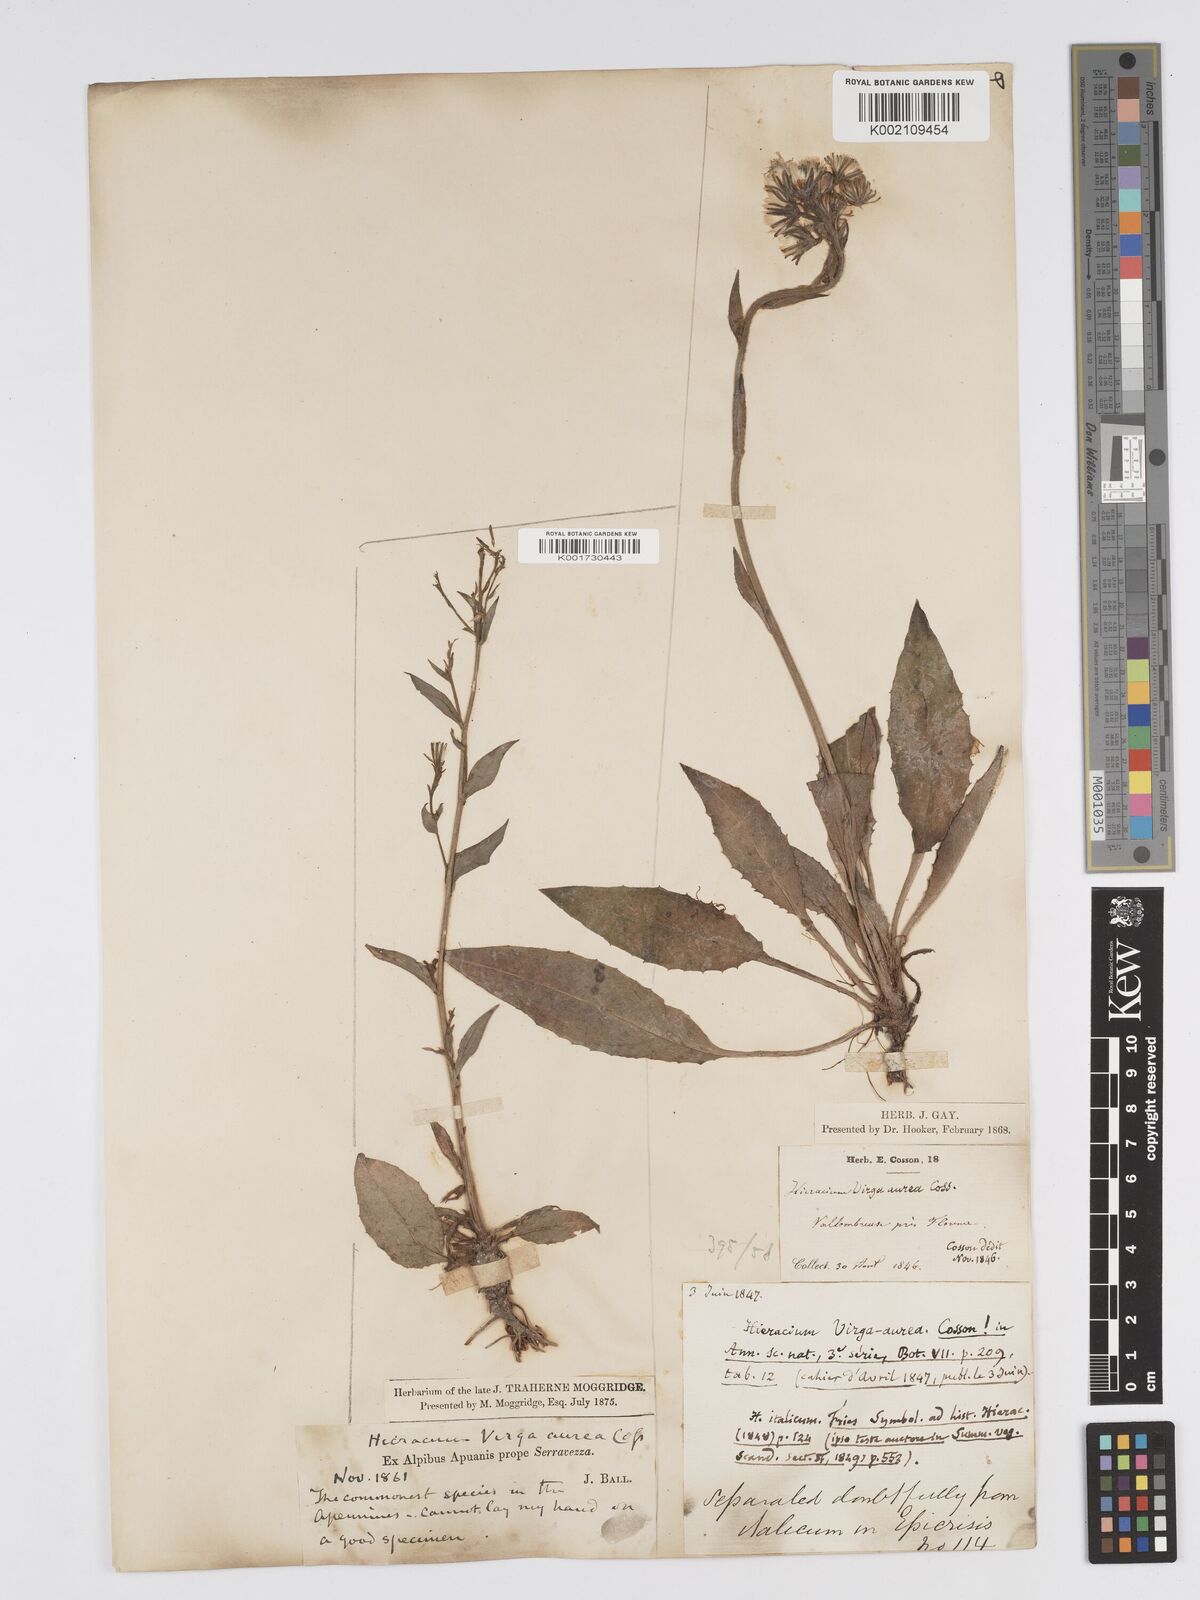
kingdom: Plantae
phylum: Tracheophyta
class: Magnoliopsida
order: Asterales
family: Asteraceae
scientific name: Asteraceae
